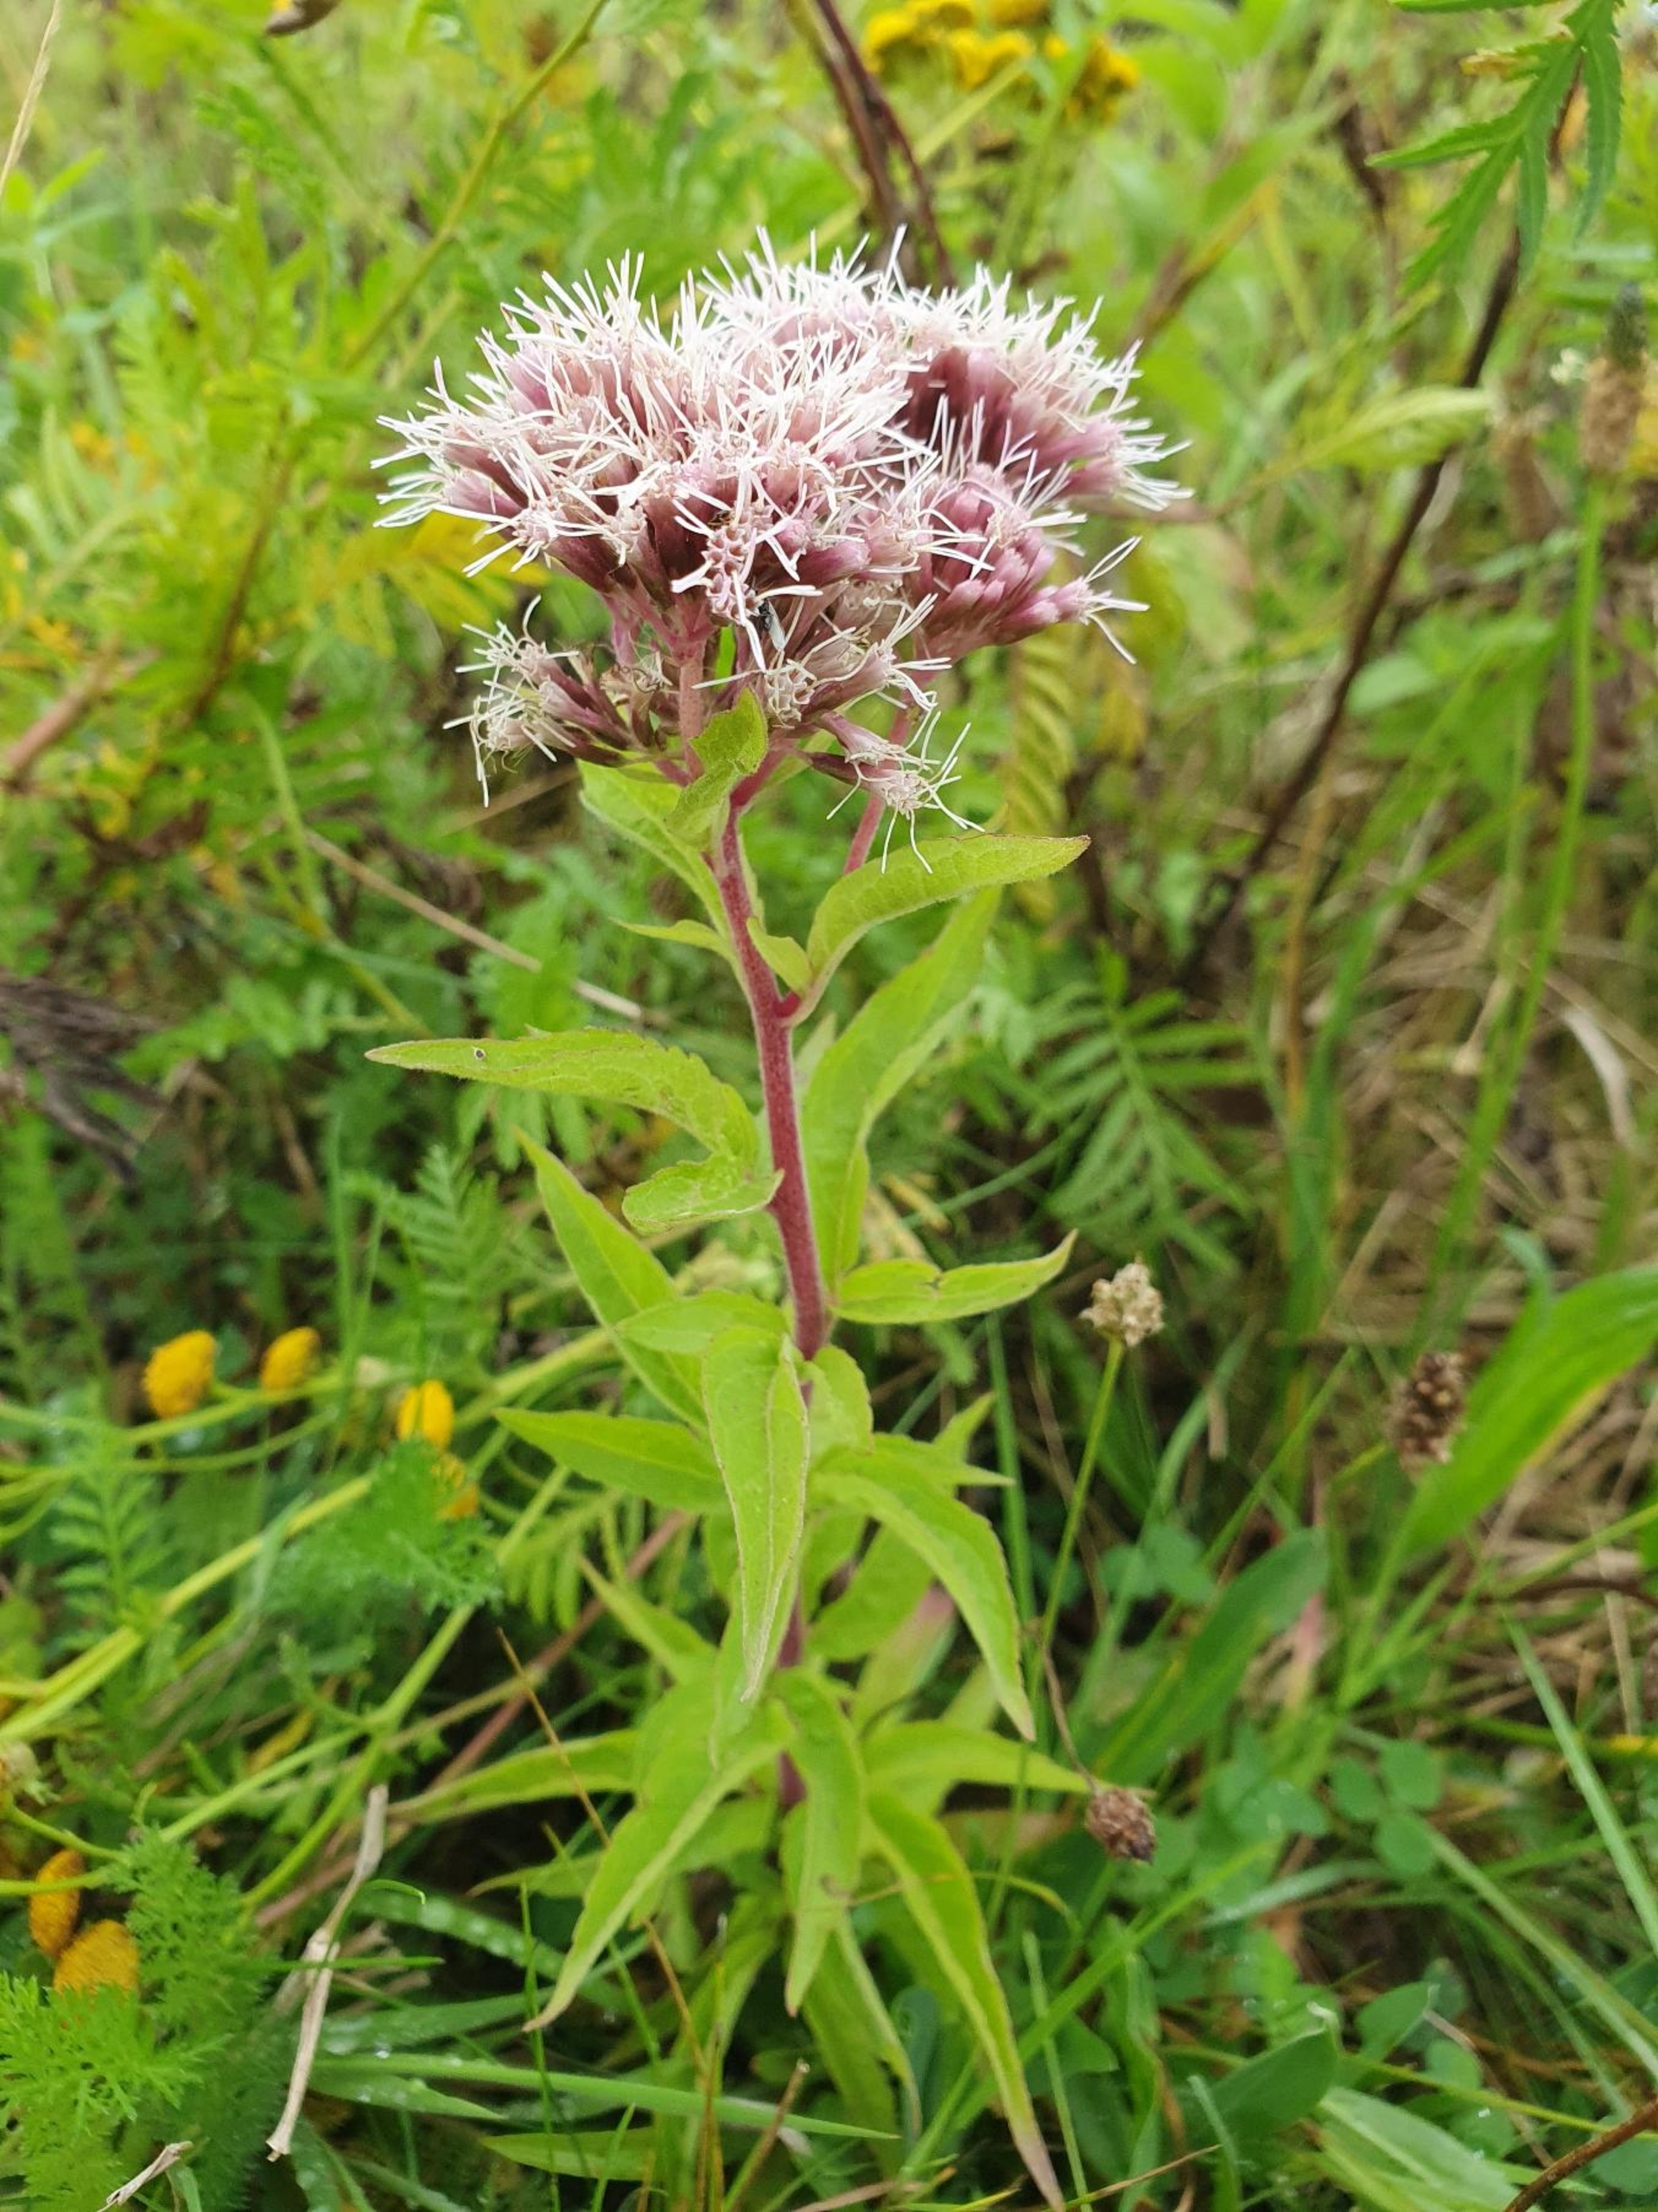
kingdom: Plantae
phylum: Tracheophyta
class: Magnoliopsida
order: Asterales
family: Asteraceae
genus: Eupatorium
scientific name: Eupatorium cannabinum
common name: Hjortetrøst
